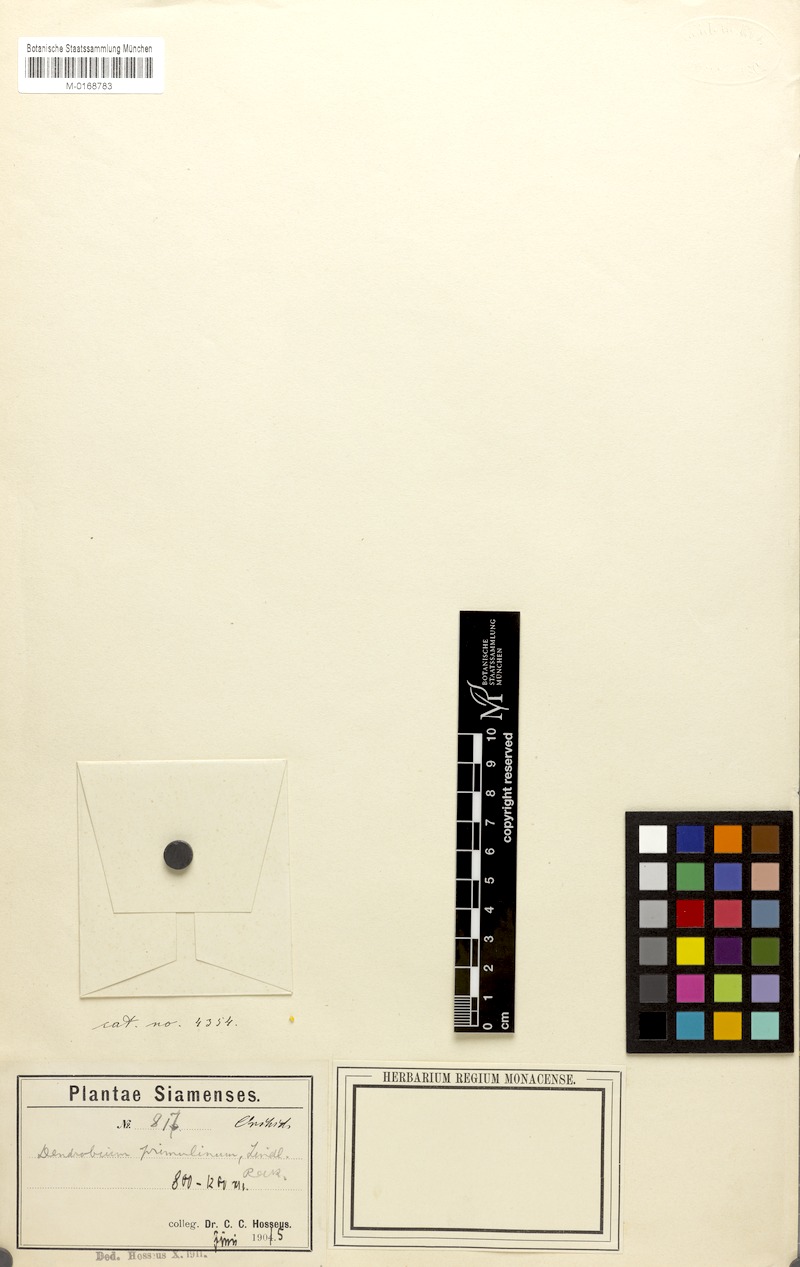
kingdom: Plantae
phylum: Tracheophyta
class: Liliopsida
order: Asparagales
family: Orchidaceae
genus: Dendrobium
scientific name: Dendrobium polyanthum
